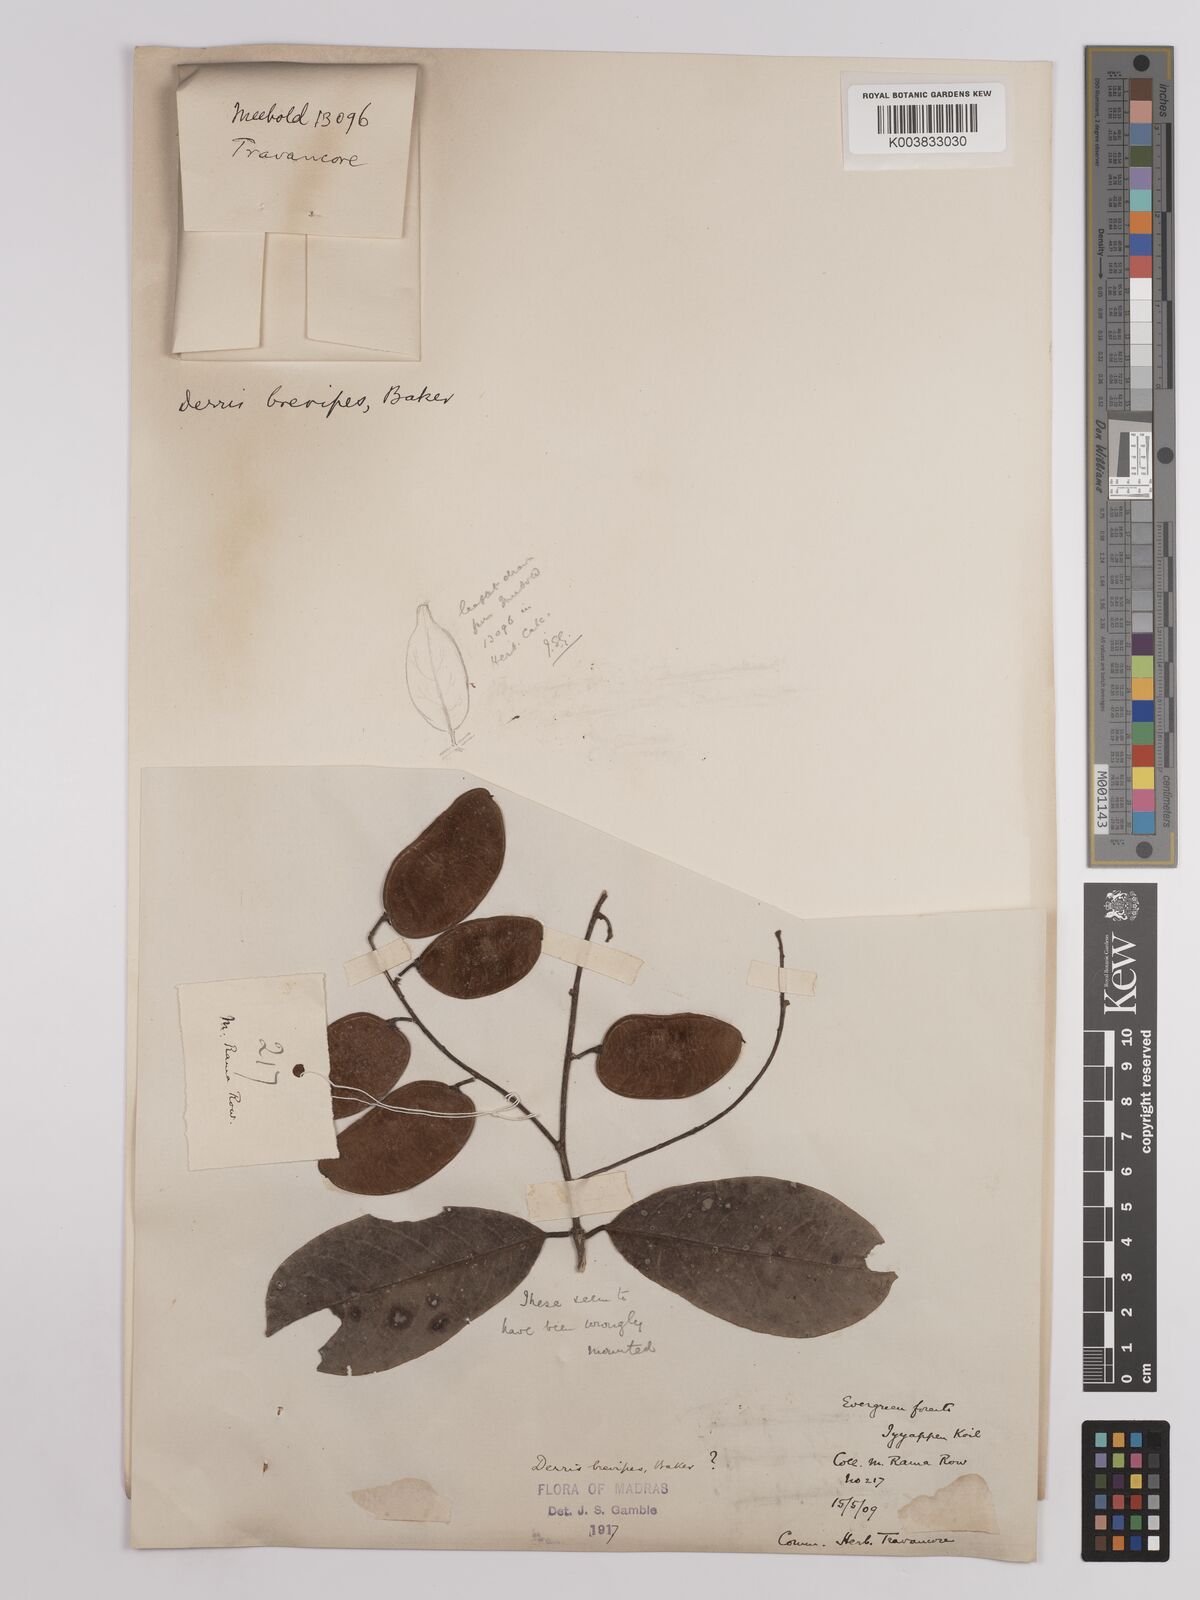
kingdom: Plantae
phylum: Tracheophyta
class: Magnoliopsida
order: Fabales
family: Fabaceae
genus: Derris
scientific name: Derris brevipes
